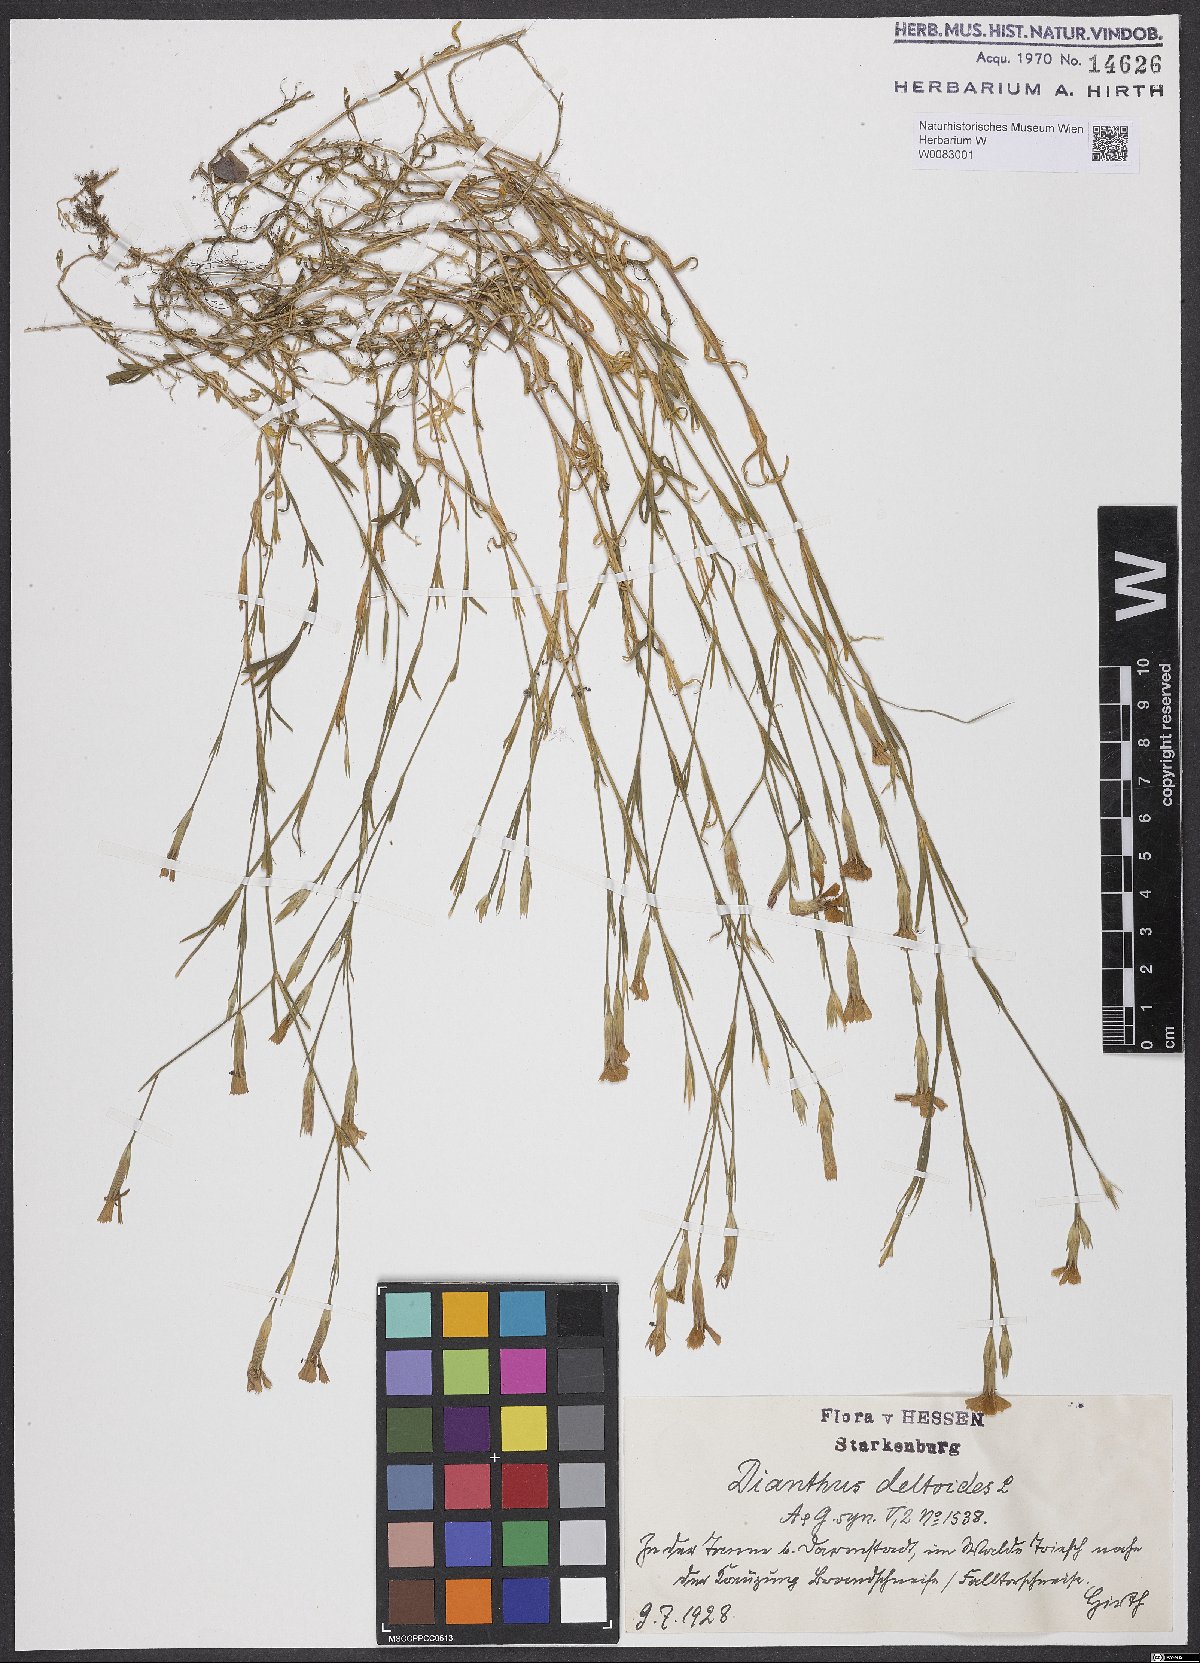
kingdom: Plantae
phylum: Tracheophyta
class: Magnoliopsida
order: Caryophyllales
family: Caryophyllaceae
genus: Dianthus
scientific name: Dianthus deltoides
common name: Maiden pink
